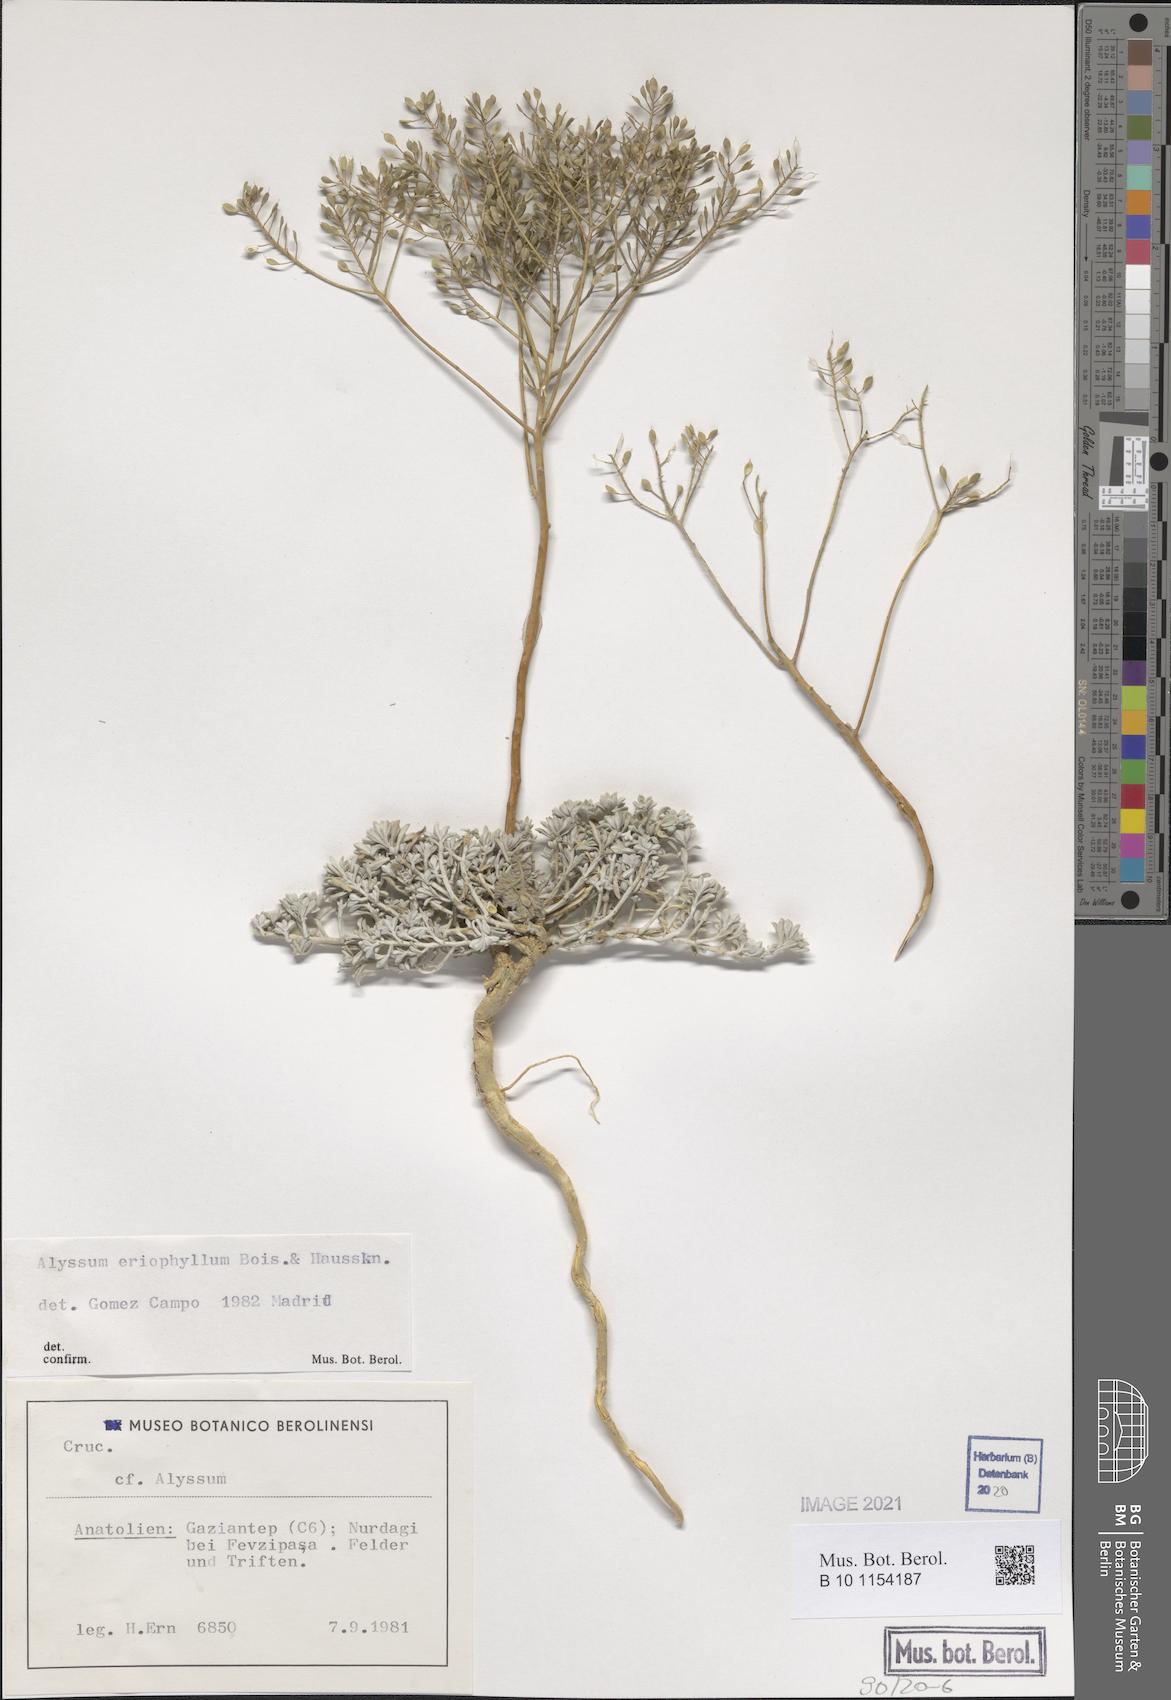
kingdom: Plantae
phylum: Tracheophyta
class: Magnoliopsida
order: Brassicales
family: Brassicaceae
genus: Odontarrhena
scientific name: Odontarrhena eriophylla
